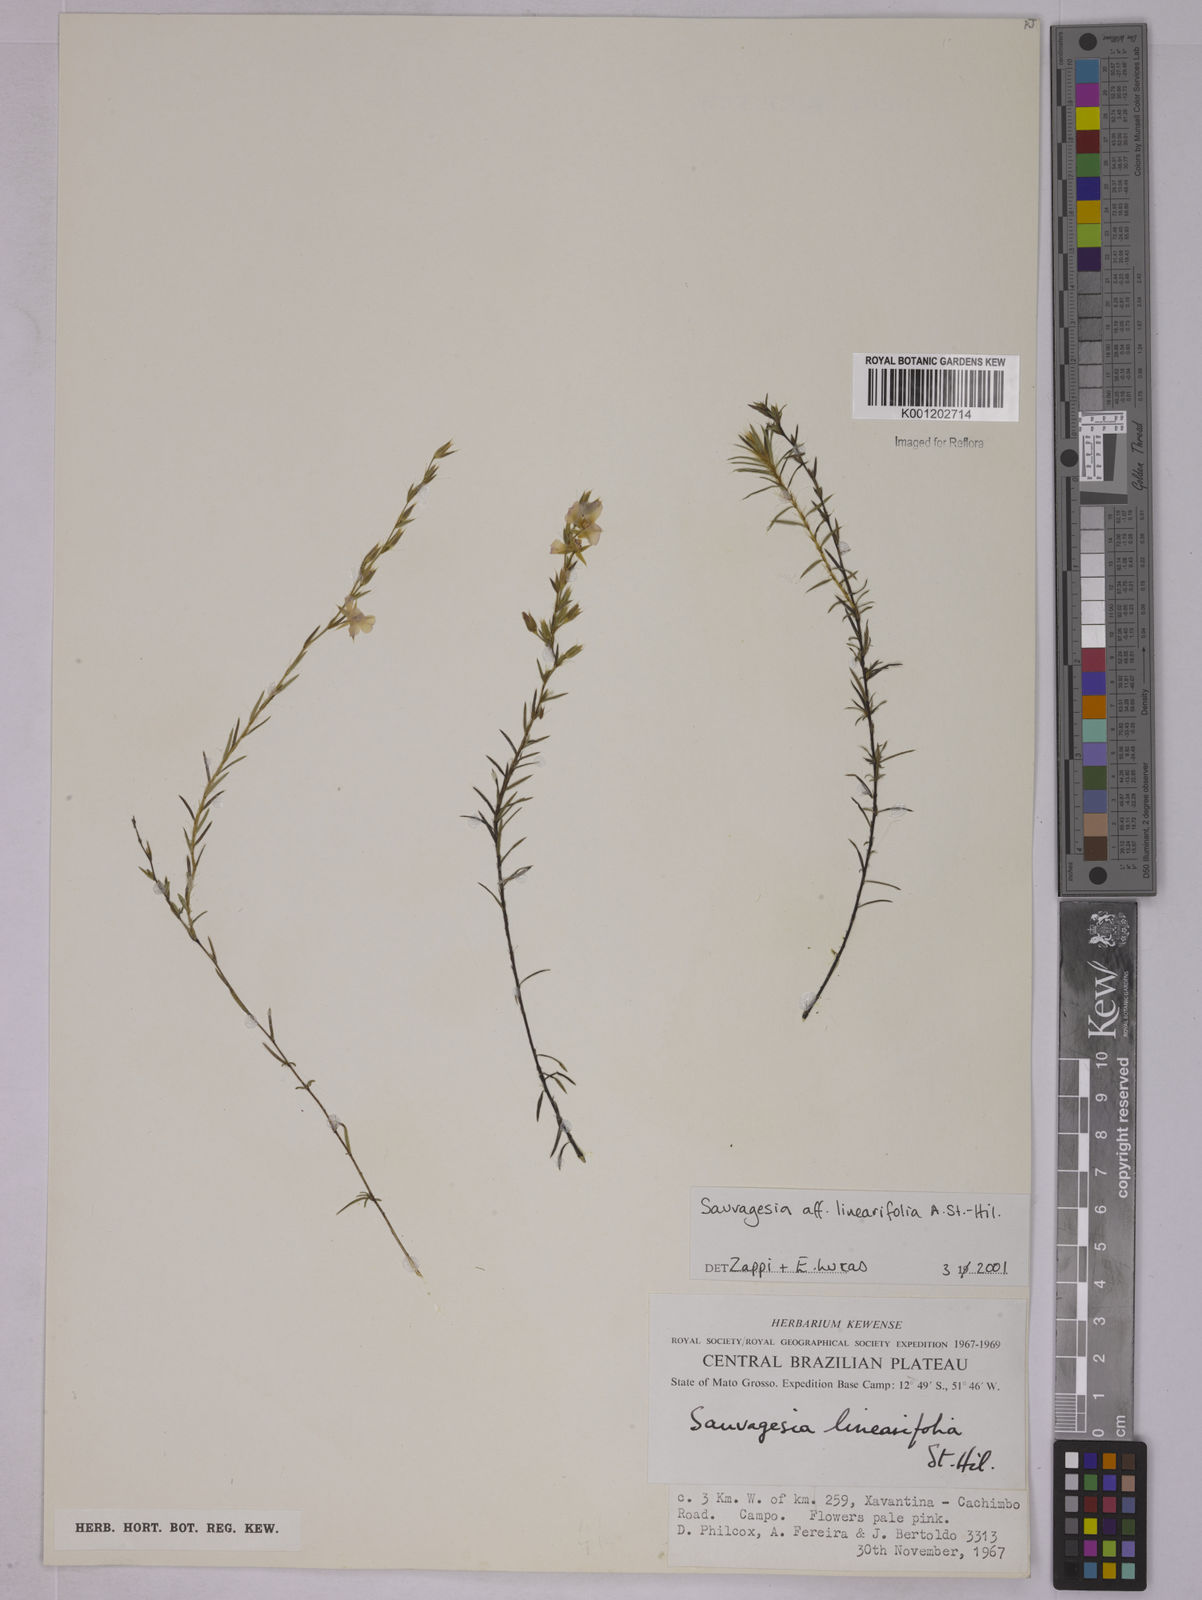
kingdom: Plantae
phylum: Tracheophyta
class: Magnoliopsida
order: Malpighiales
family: Ochnaceae
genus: Sauvagesia
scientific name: Sauvagesia linearifolia
